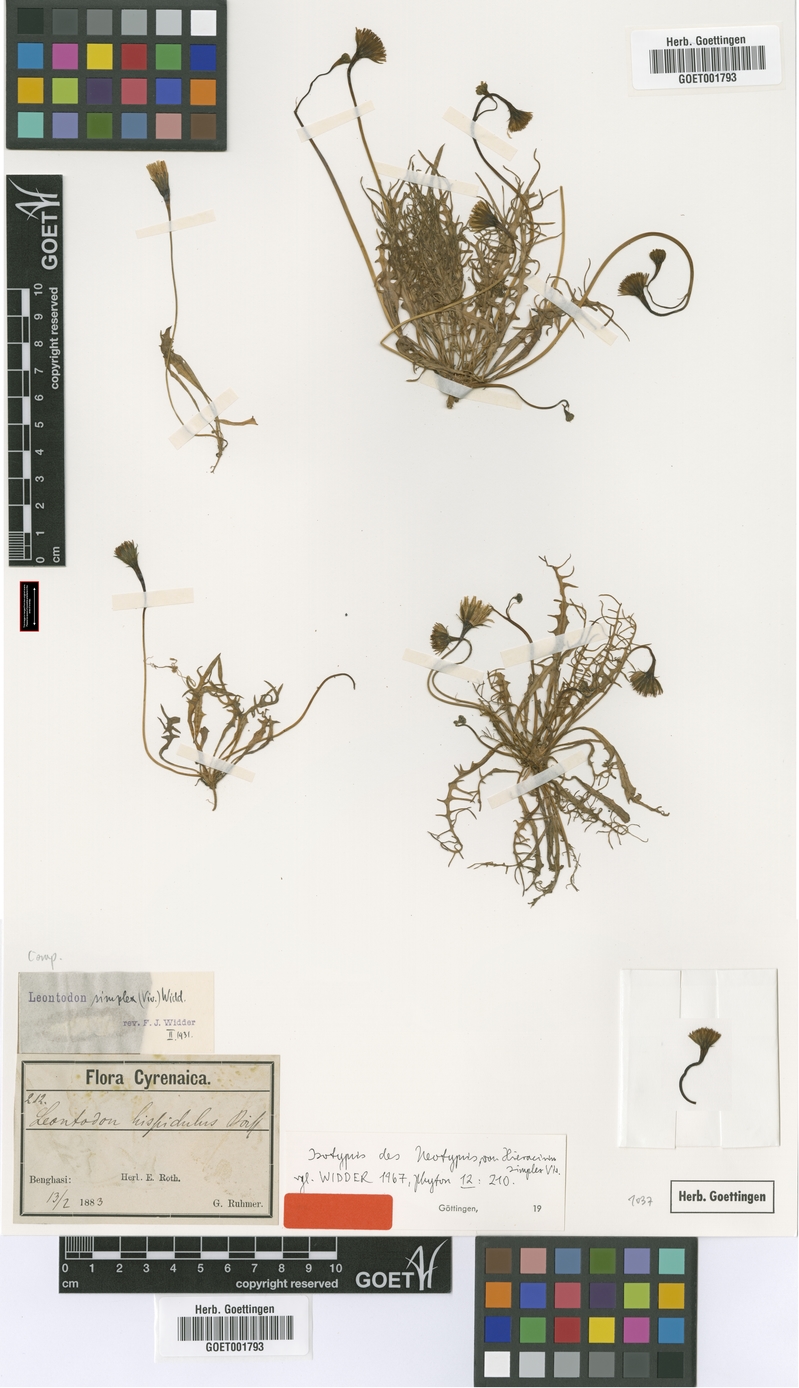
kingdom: Plantae
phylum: Tracheophyta
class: Magnoliopsida
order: Asterales
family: Asteraceae
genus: Scorzoneroides
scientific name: Scorzoneroides simplex
